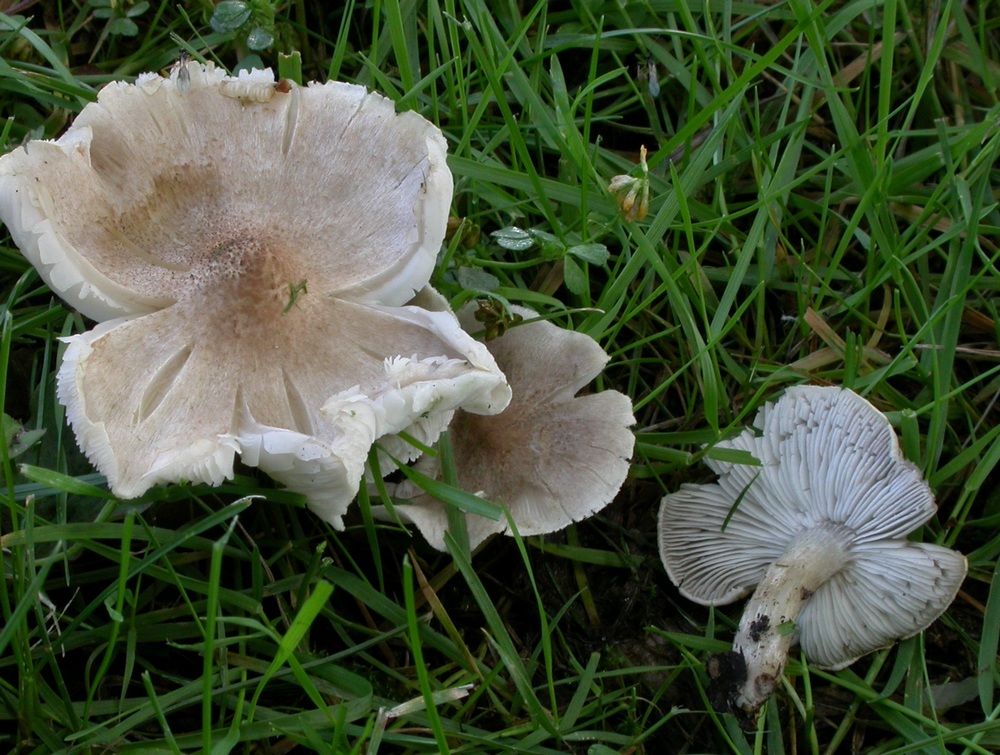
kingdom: Fungi
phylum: Basidiomycota
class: Agaricomycetes
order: Agaricales
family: Tricholomataceae
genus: Tricholoma
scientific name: Tricholoma argyraceum
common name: spids ridderhat
